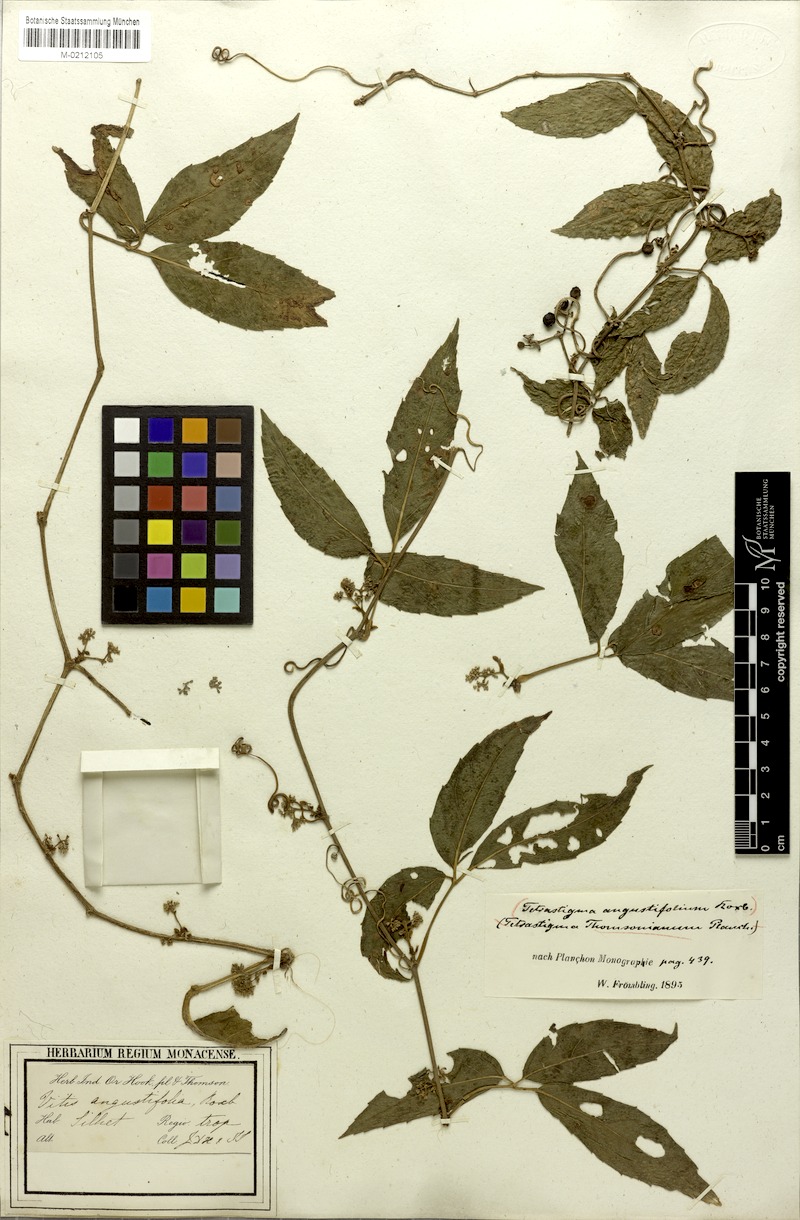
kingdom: Plantae
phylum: Tracheophyta
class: Magnoliopsida
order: Vitales
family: Vitaceae
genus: Tetrastigma
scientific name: Tetrastigma thomsonianum
